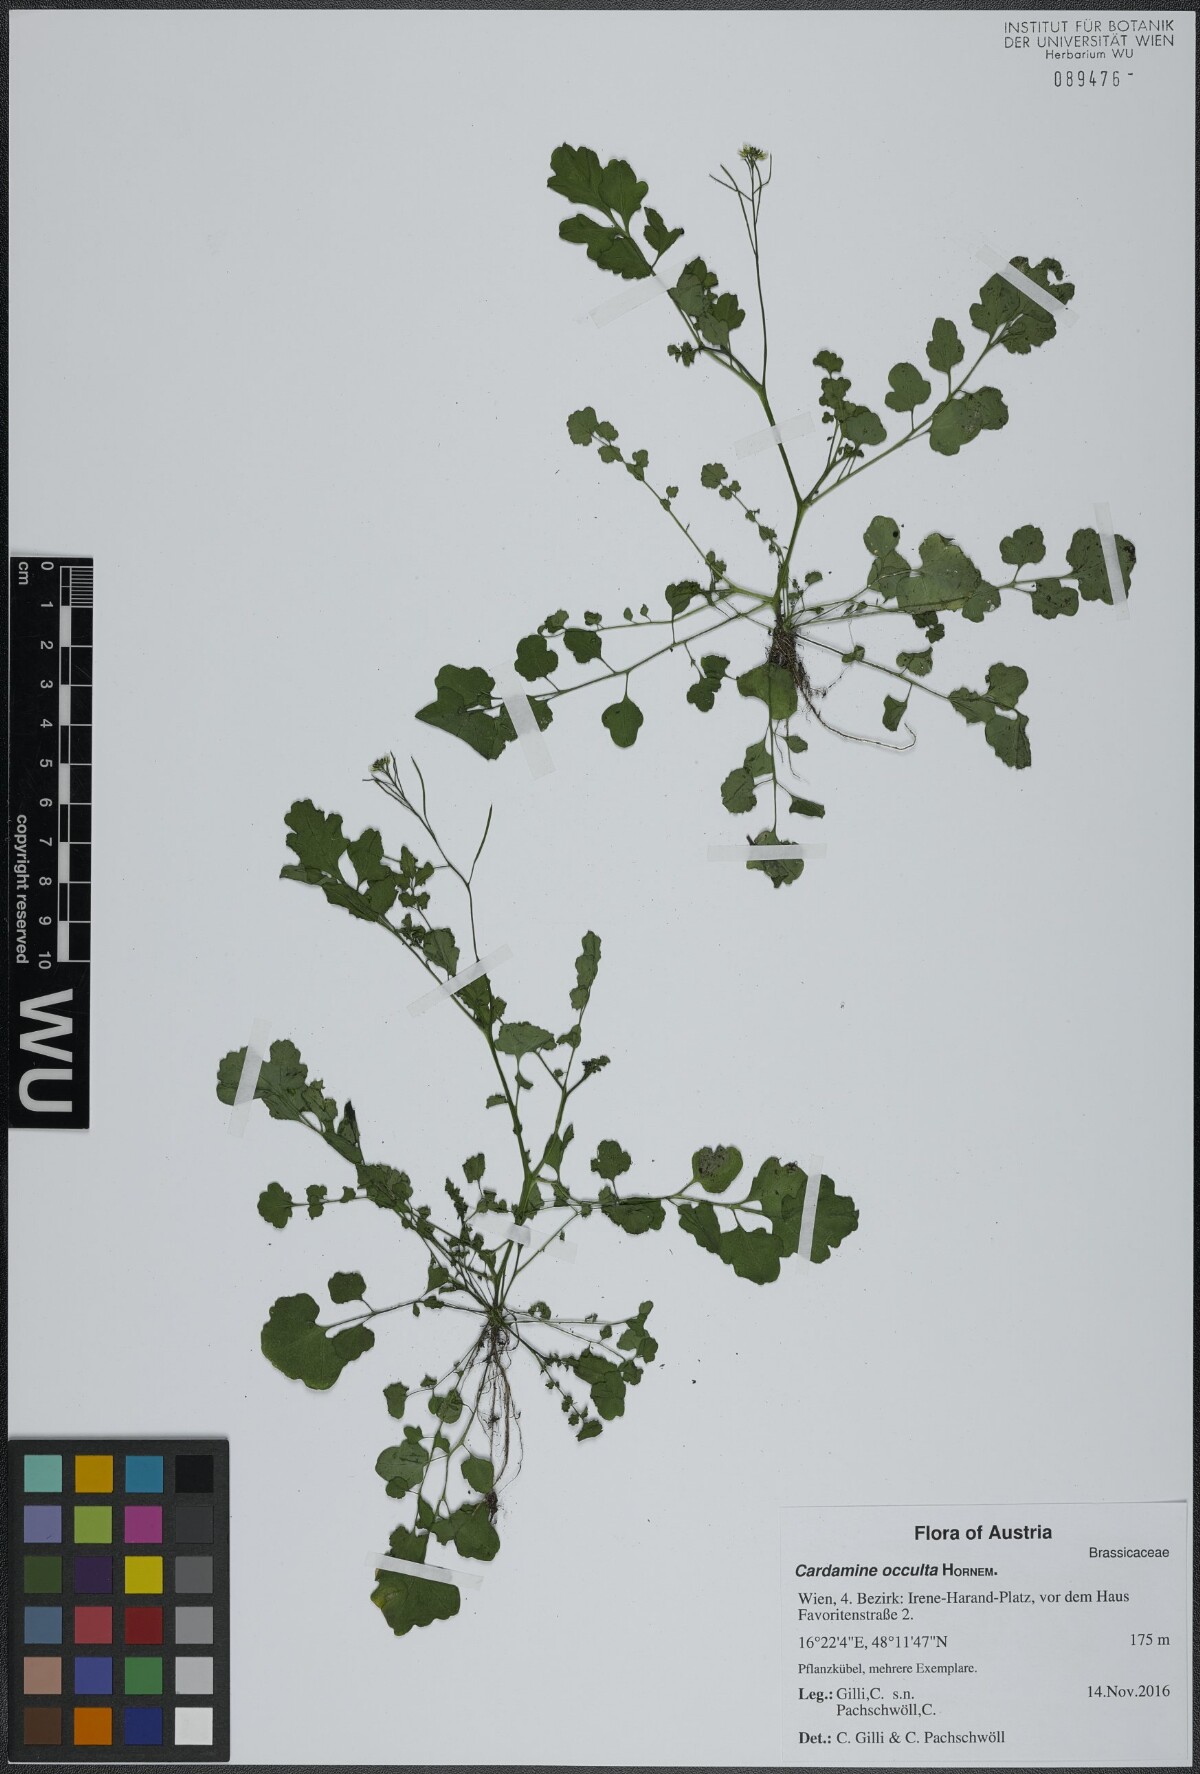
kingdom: Plantae
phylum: Tracheophyta
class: Magnoliopsida
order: Brassicales
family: Brassicaceae
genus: Cardamine
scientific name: Cardamine occulta
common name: Asian wavy bittercress
